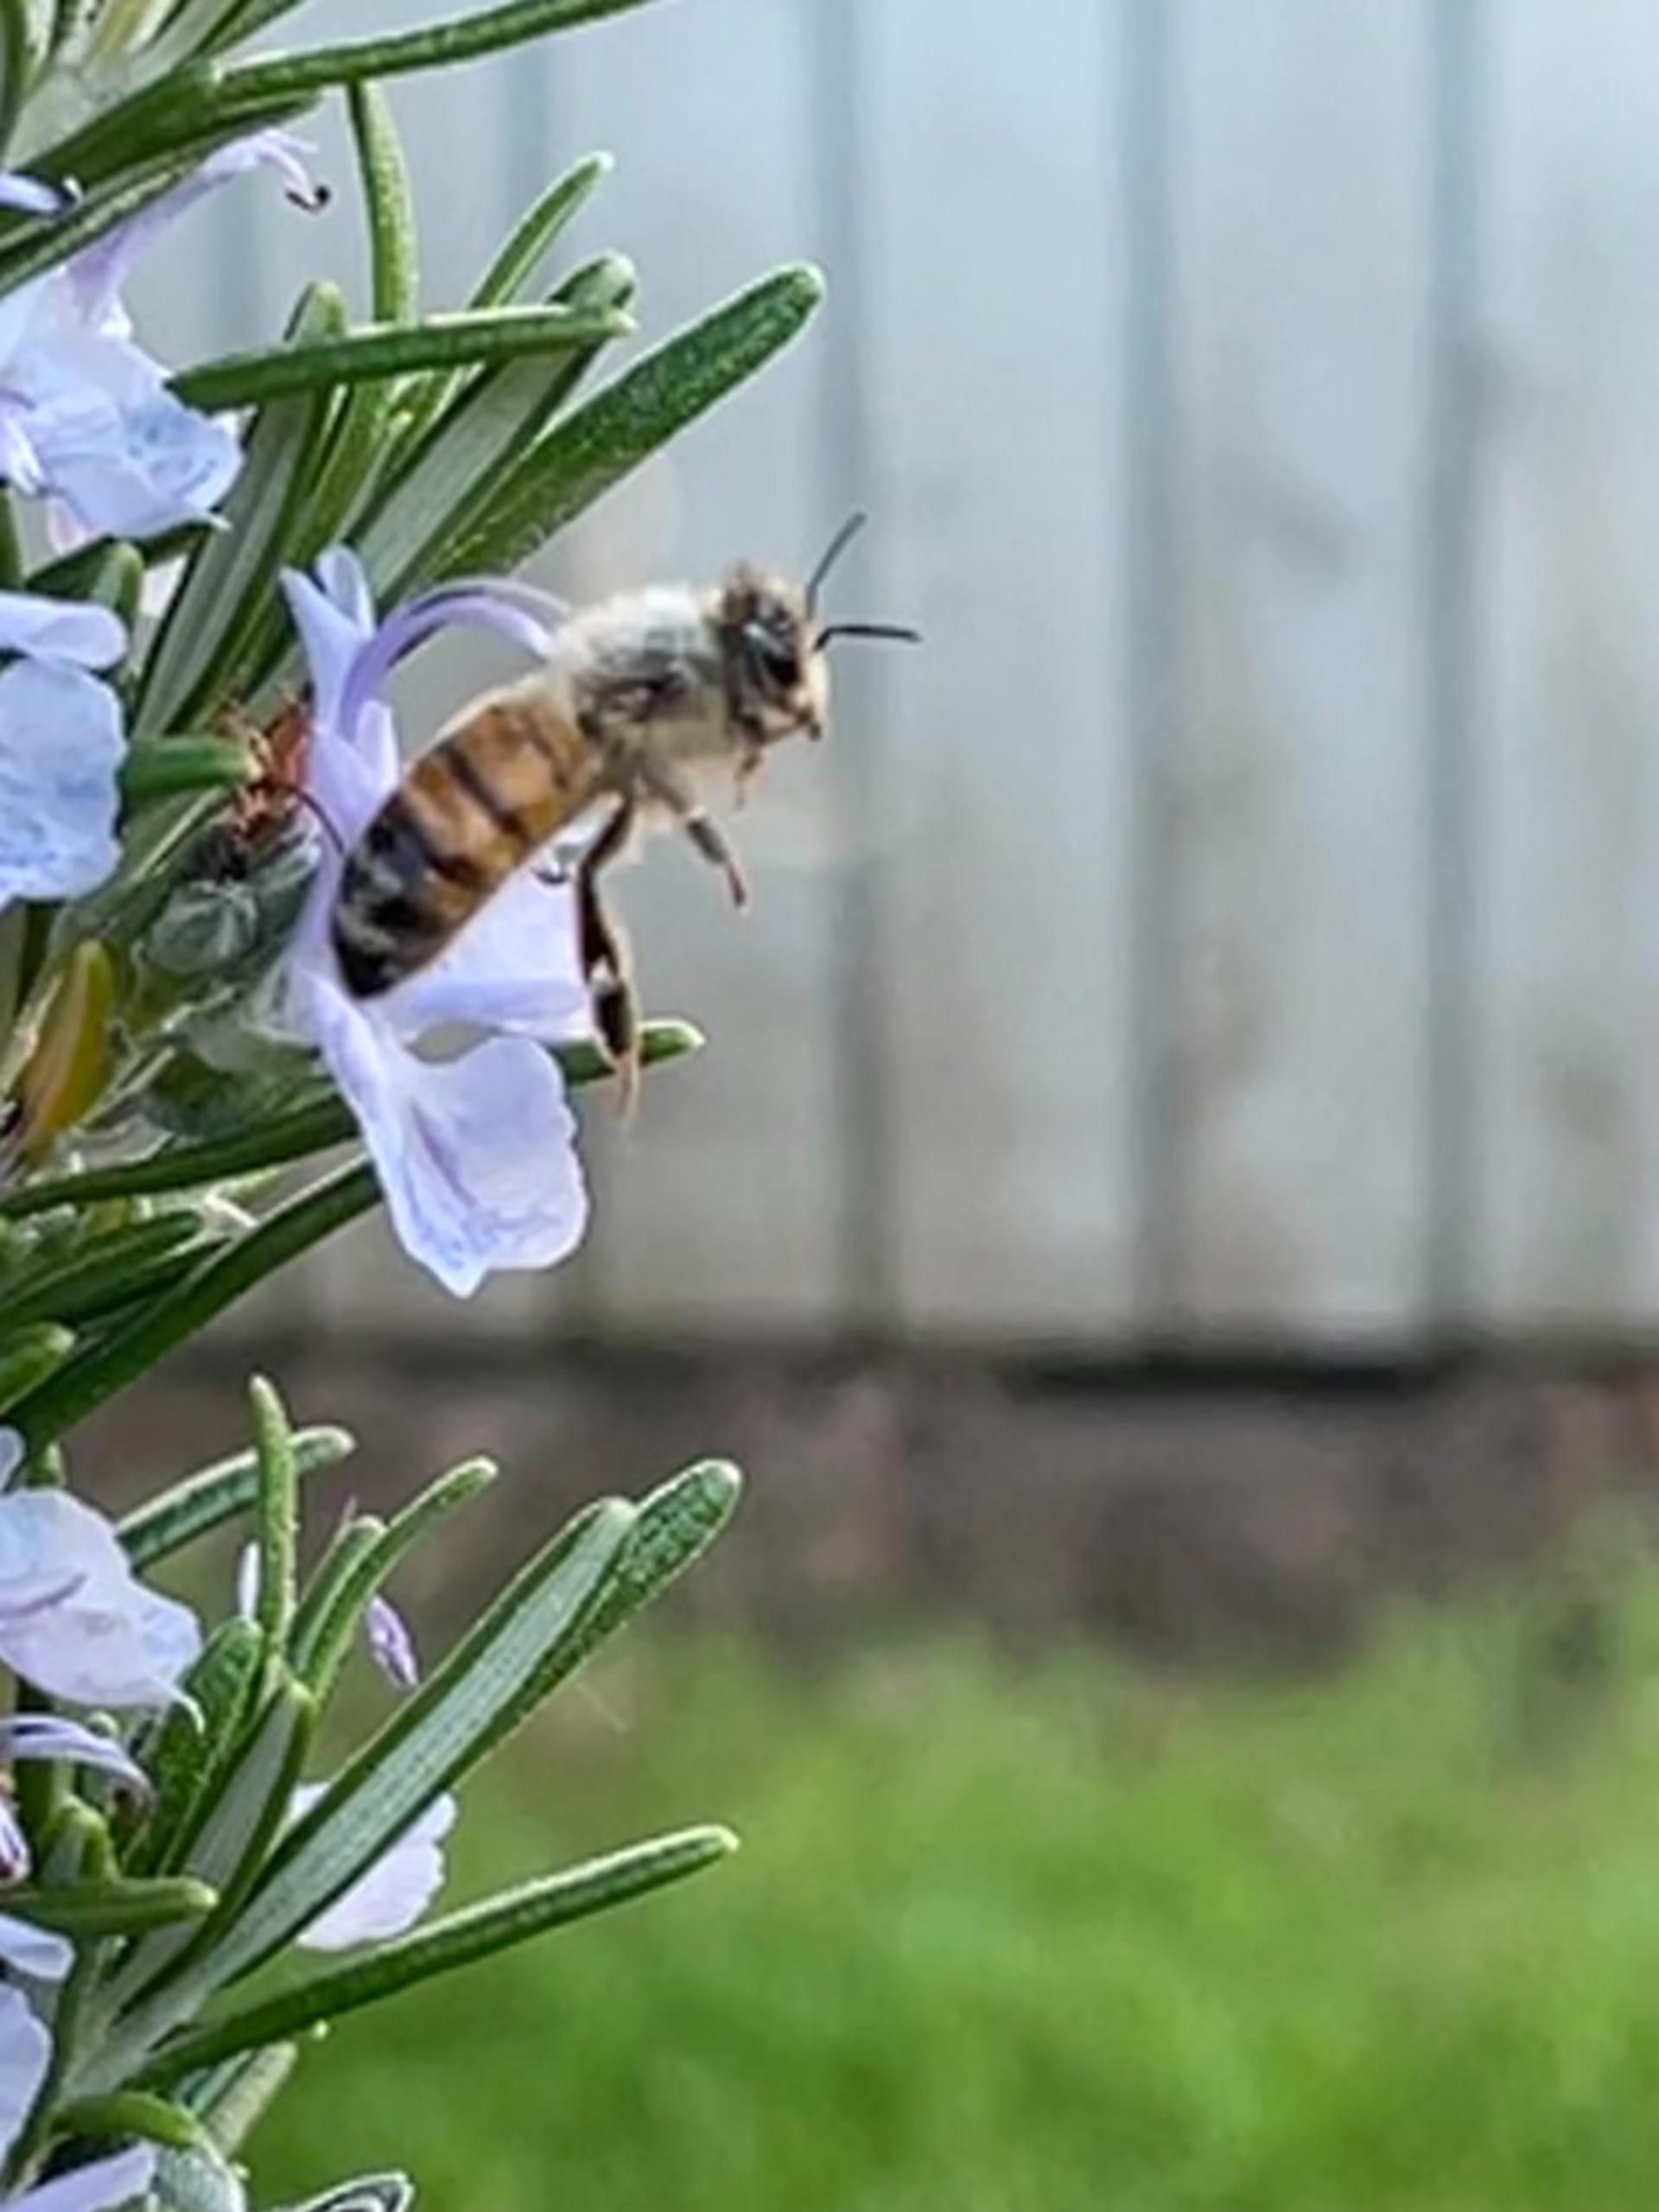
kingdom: Animalia
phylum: Arthropoda
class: Insecta
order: Hymenoptera
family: Apidae
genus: Apis
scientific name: Apis mellifera
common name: Honningbi
